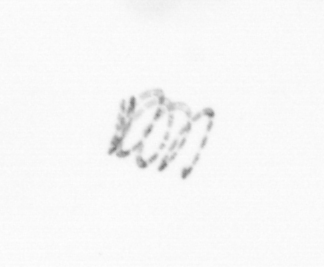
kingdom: Chromista
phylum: Ochrophyta
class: Bacillariophyceae
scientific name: Bacillariophyceae
